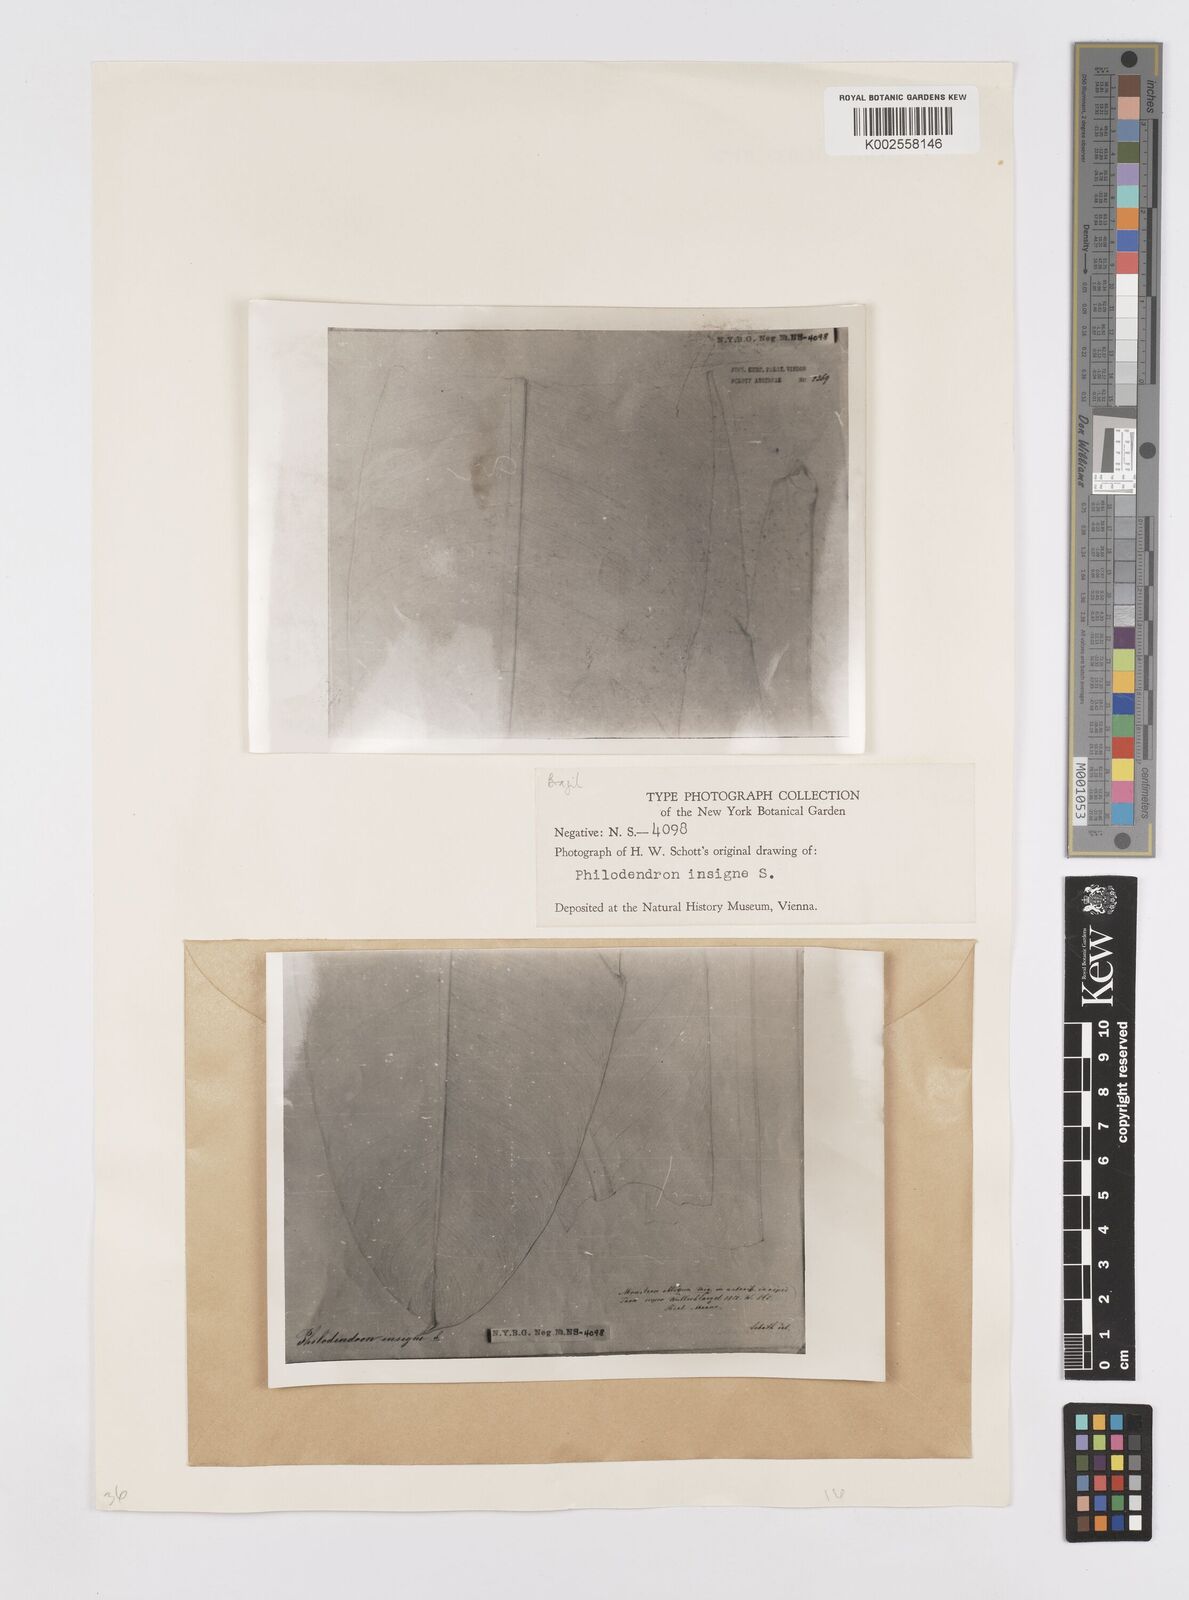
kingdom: Plantae
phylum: Tracheophyta
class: Liliopsida
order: Alismatales
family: Araceae
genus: Philodendron
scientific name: Philodendron insigne
